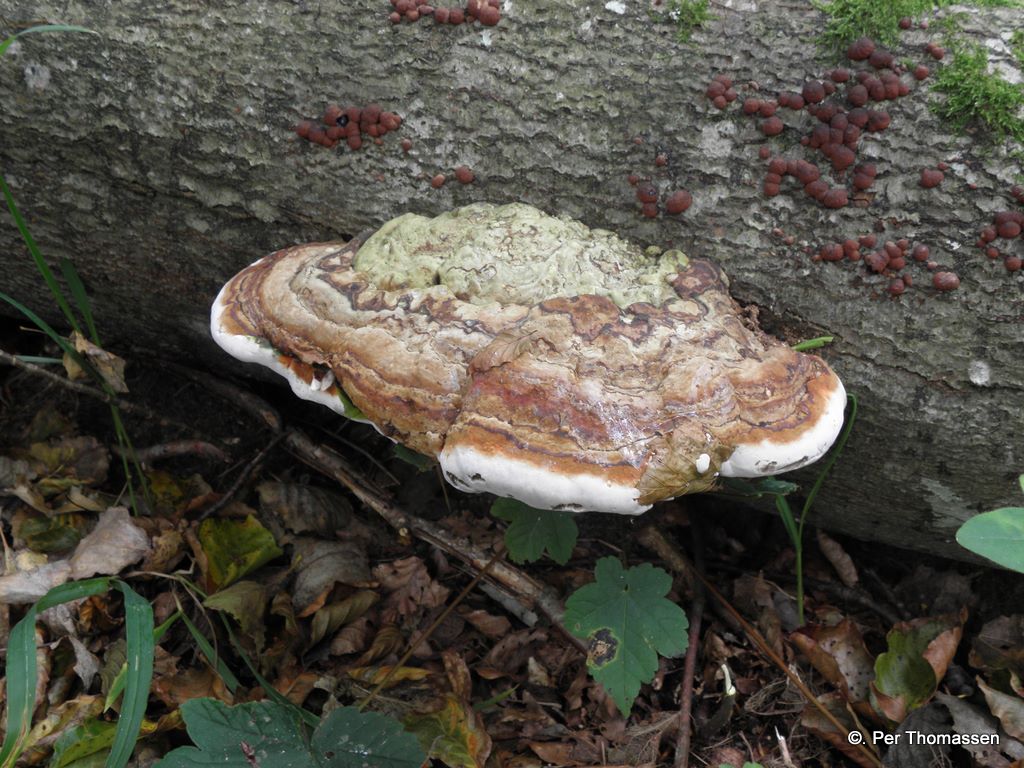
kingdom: Fungi
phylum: Basidiomycota
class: Agaricomycetes
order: Polyporales
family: Fomitopsidaceae
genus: Fomitopsis
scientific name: Fomitopsis pinicola
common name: randbæltet hovporesvamp
